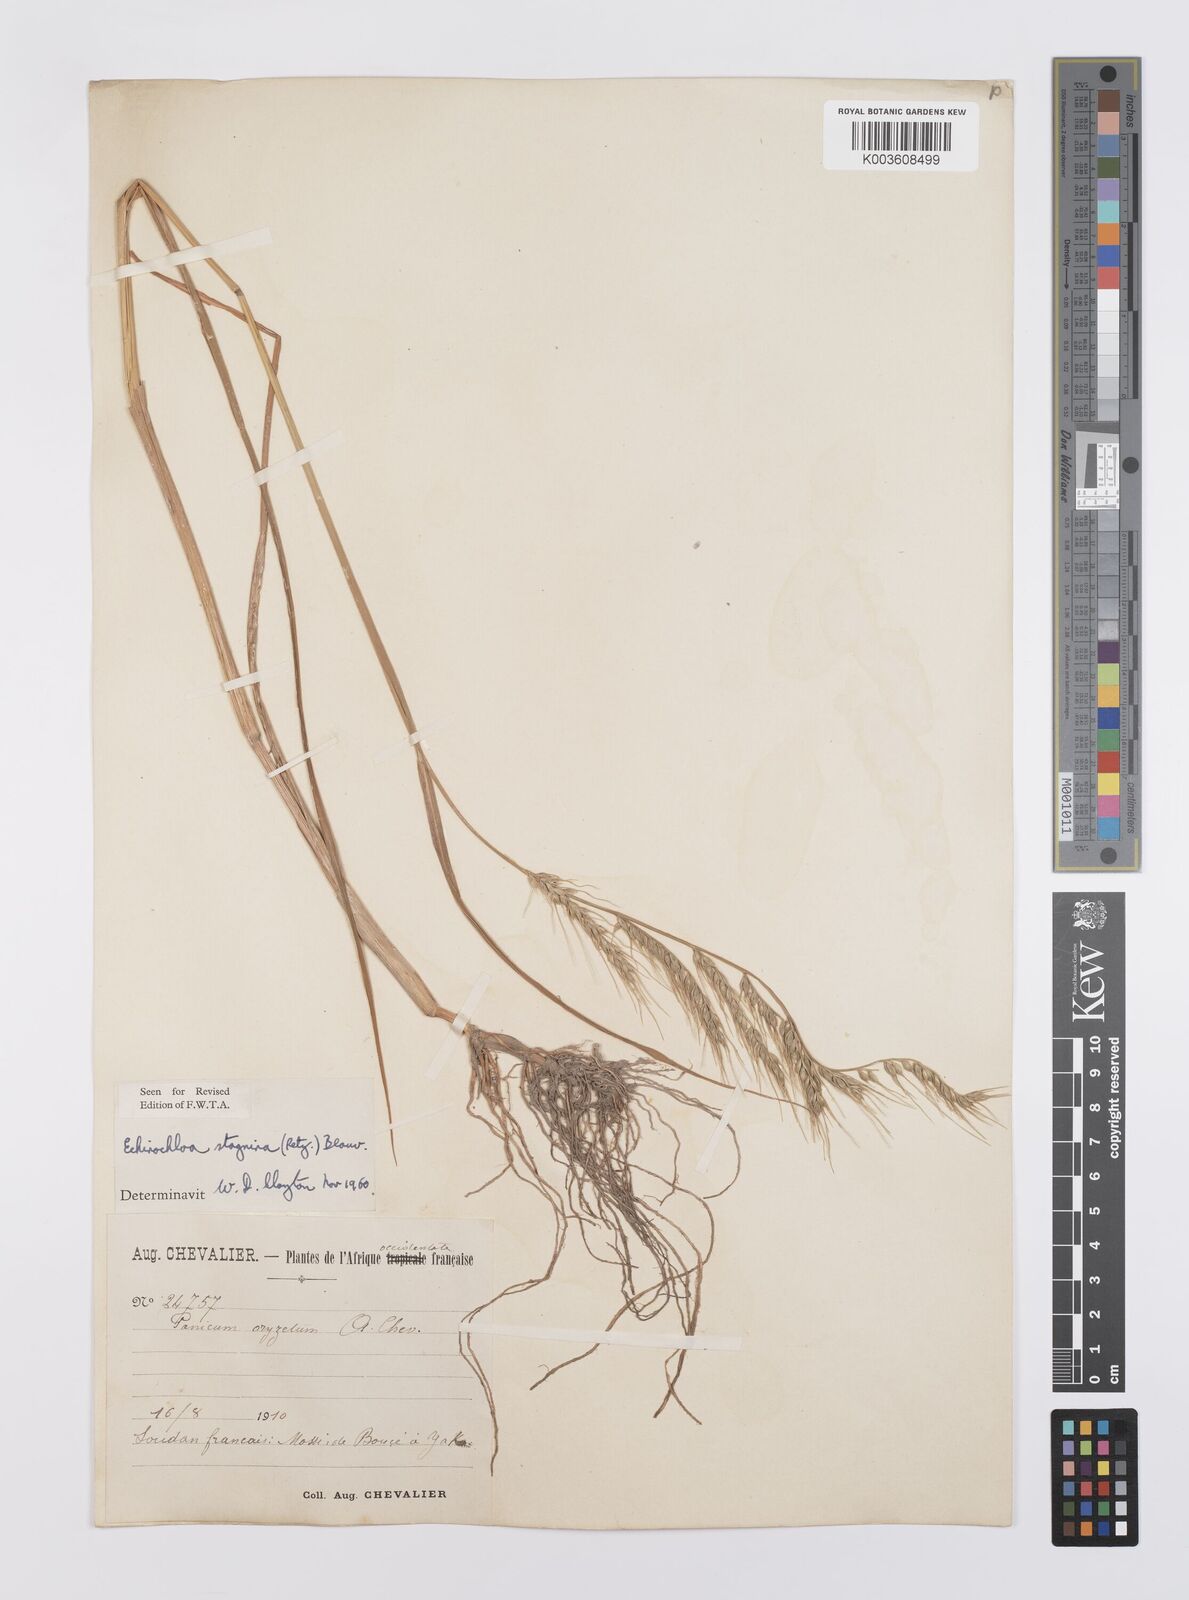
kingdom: Plantae
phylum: Tracheophyta
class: Liliopsida
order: Poales
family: Poaceae
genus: Echinochloa
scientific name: Echinochloa stagnina
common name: Burgu grass
